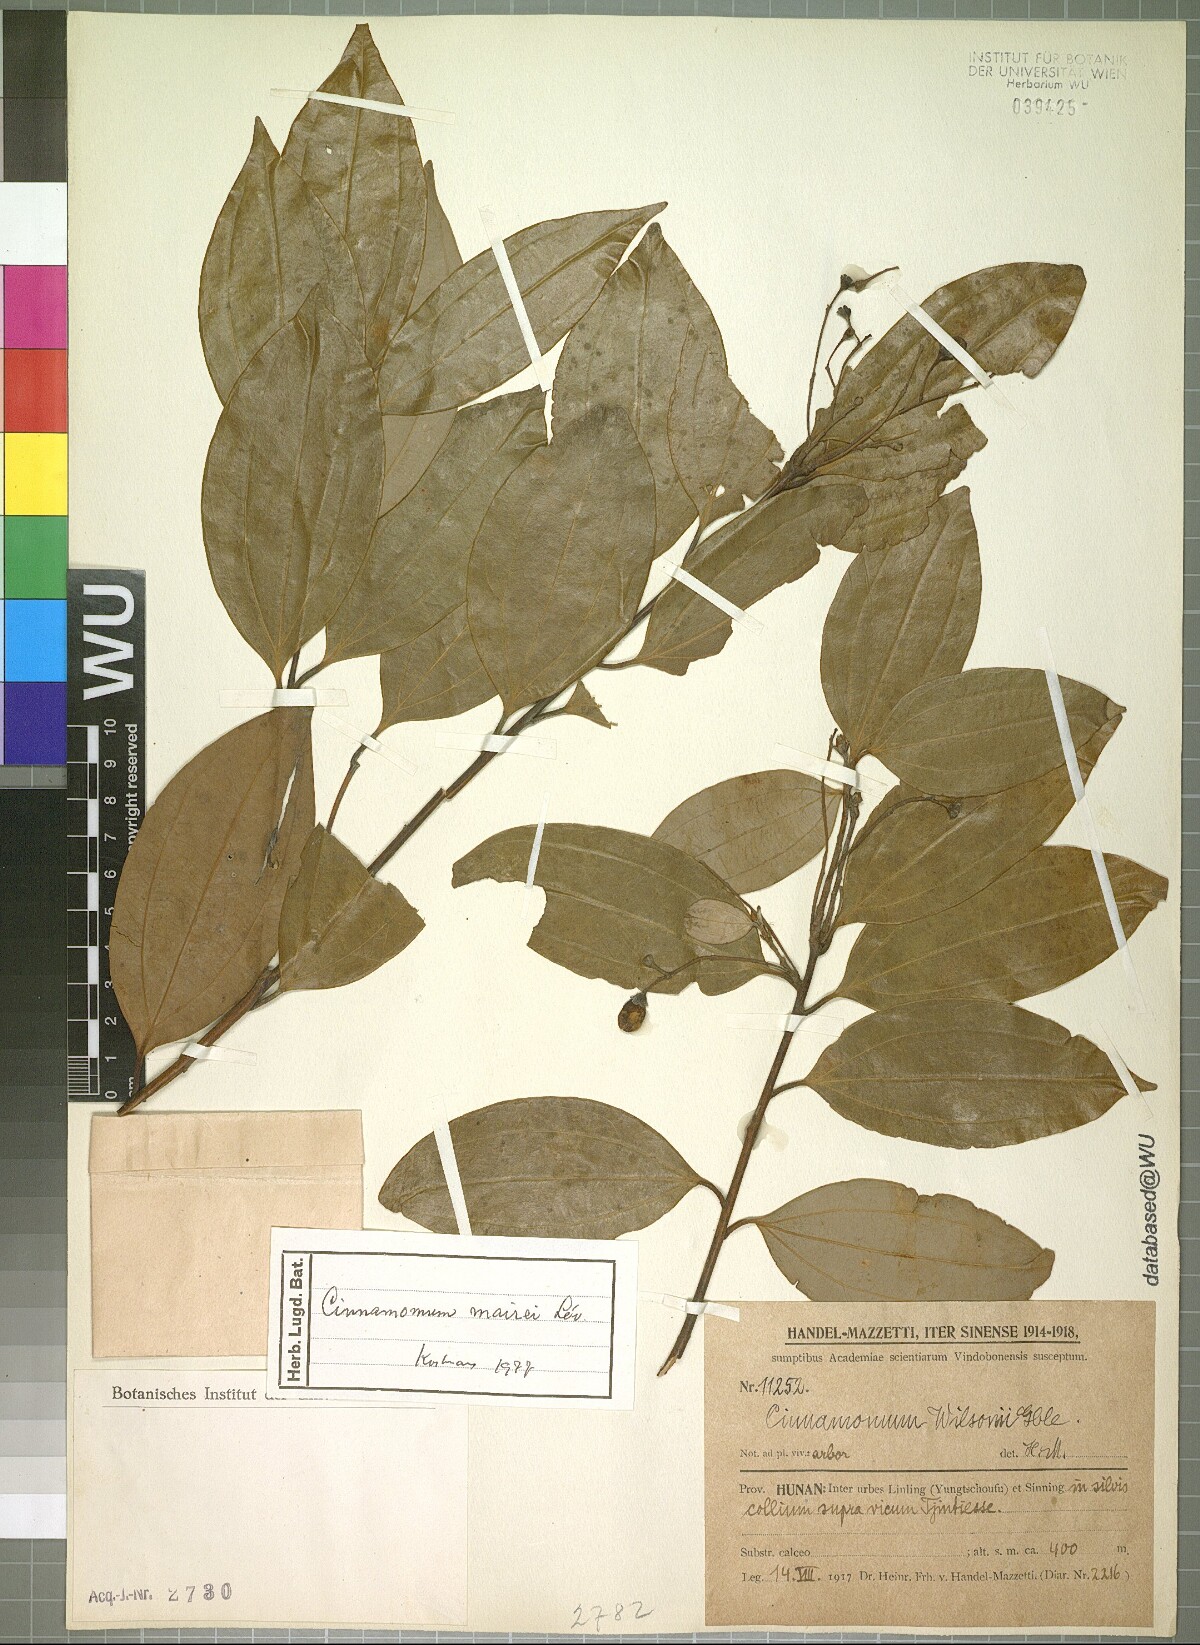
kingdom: Plantae
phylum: Tracheophyta
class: Magnoliopsida
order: Laurales
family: Lauraceae
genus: Cinnamomum
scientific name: Cinnamomum mairei
